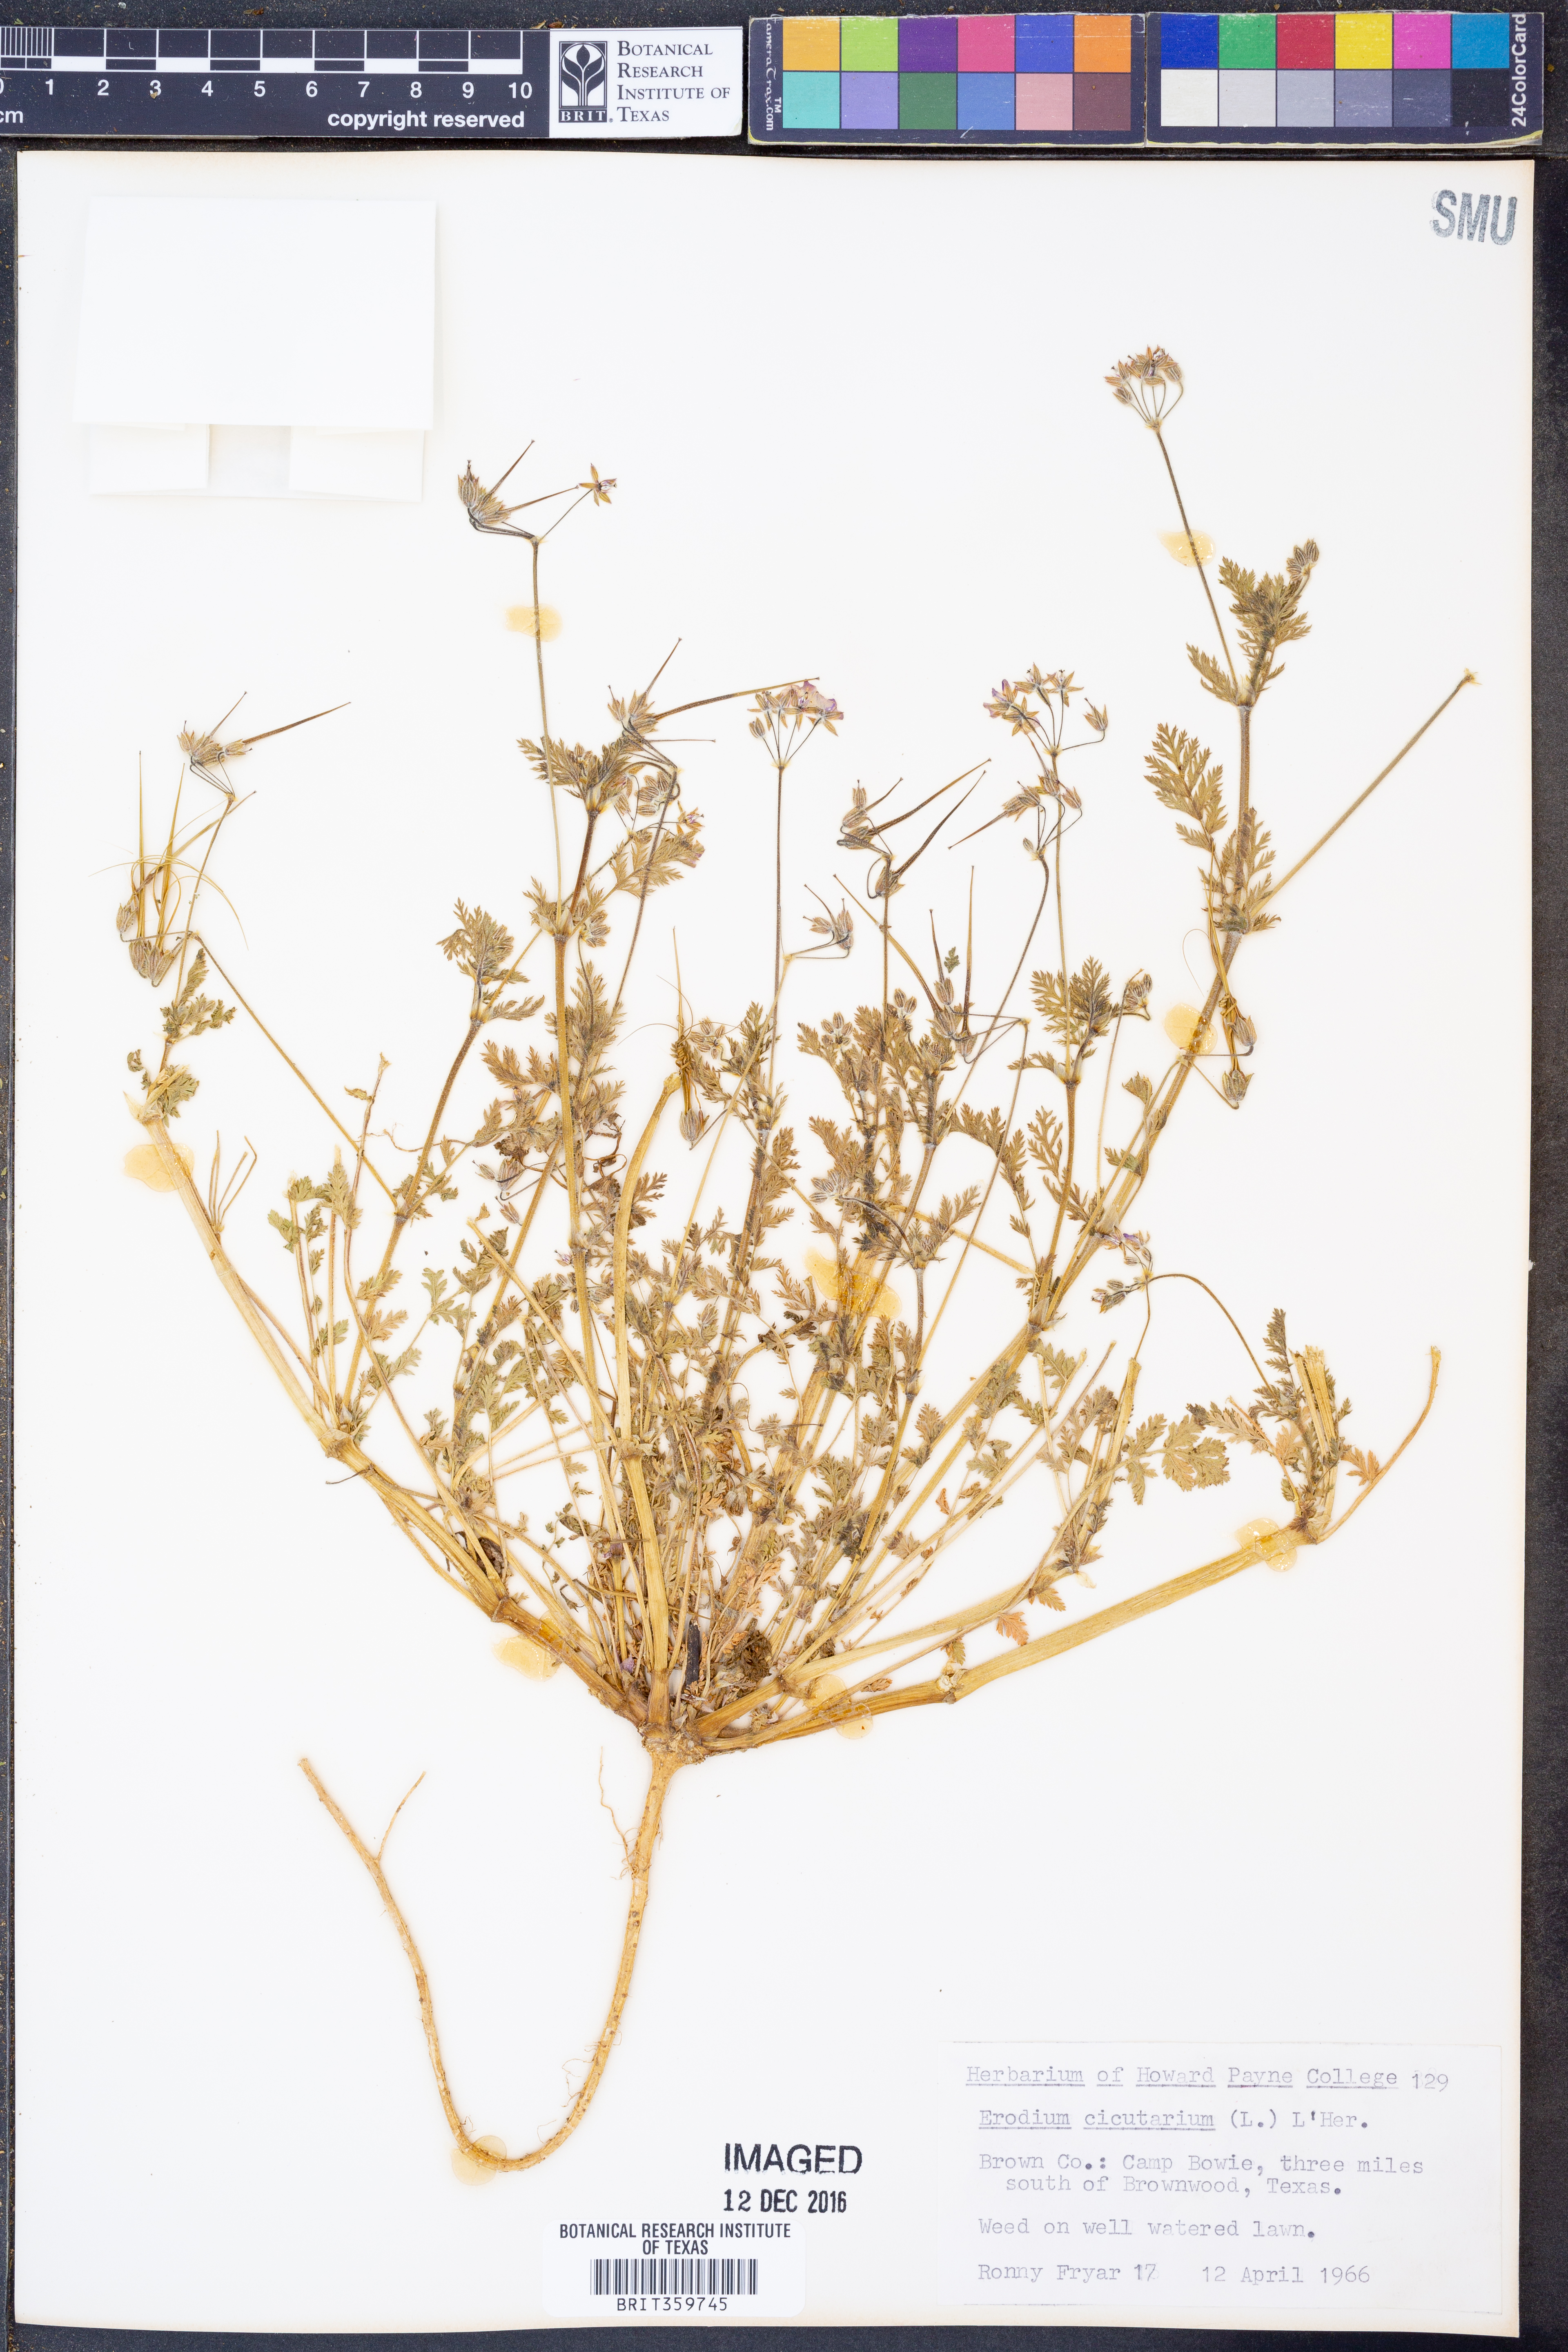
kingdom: Plantae
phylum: Tracheophyta
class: Magnoliopsida
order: Geraniales
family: Geraniaceae
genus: Erodium
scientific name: Erodium cicutarium
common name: Common stork's-bill
